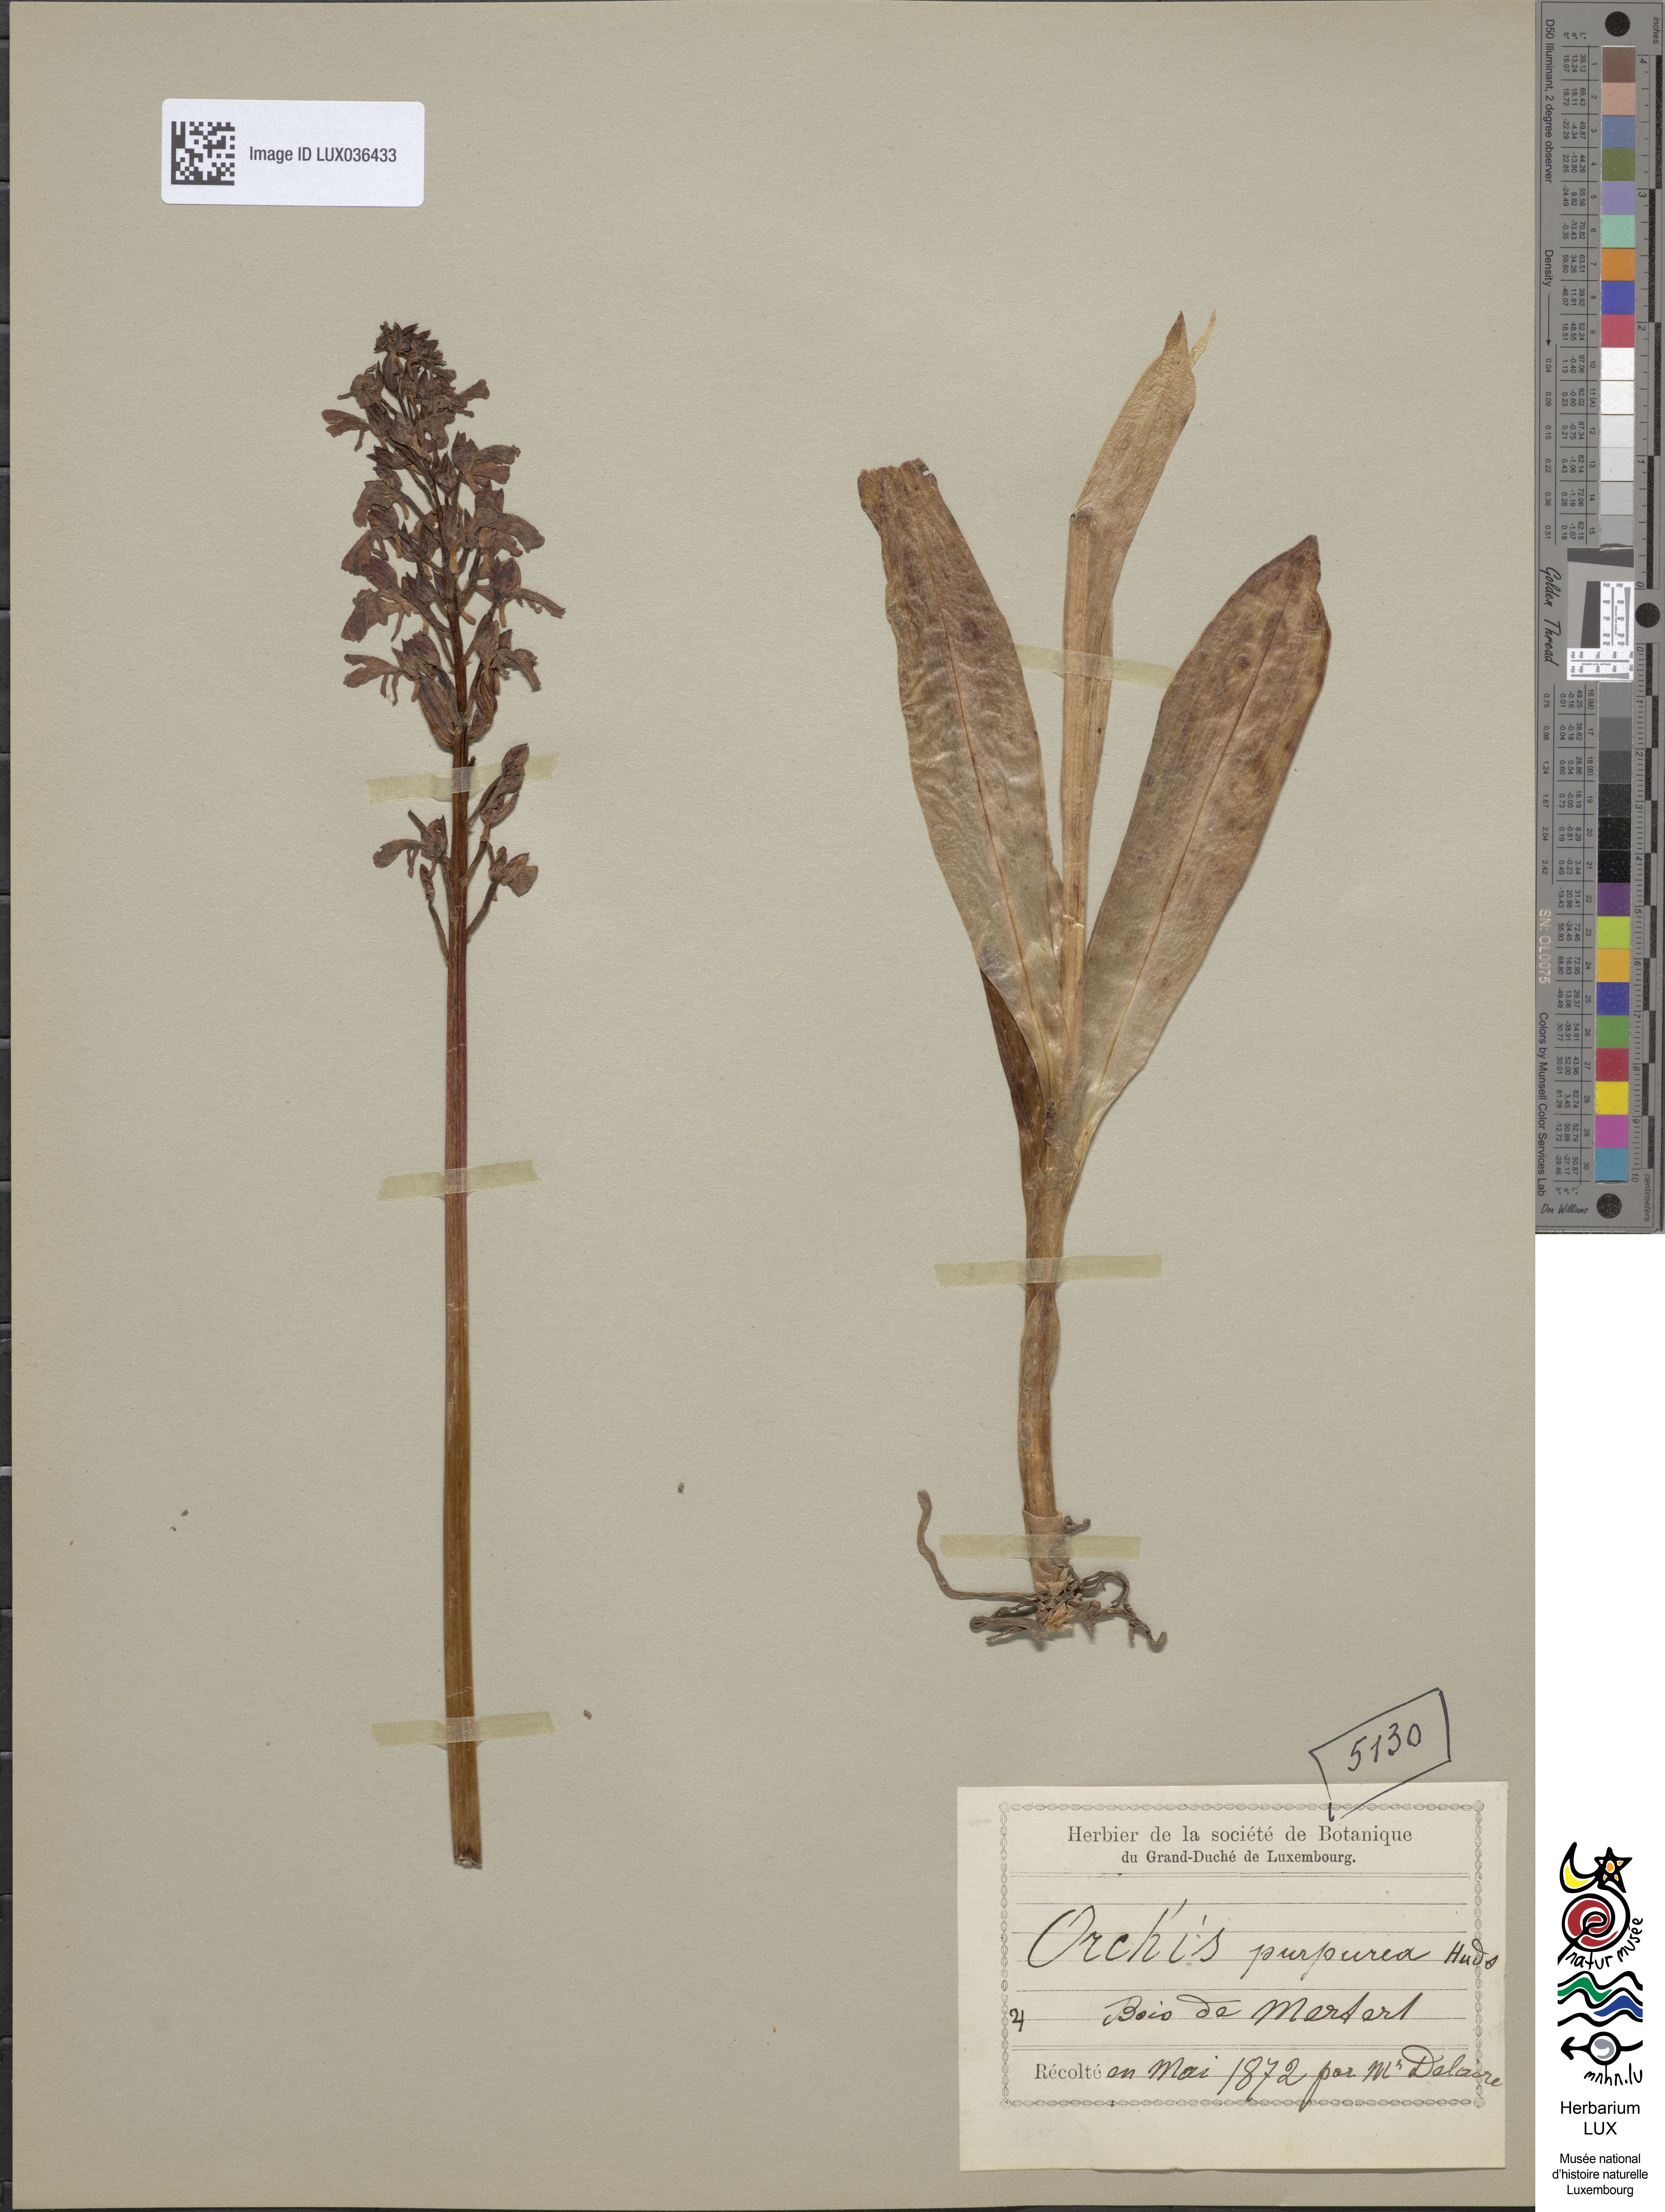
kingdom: Plantae
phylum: Tracheophyta
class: Liliopsida
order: Asparagales
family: Orchidaceae
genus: Orchis
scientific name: Orchis purpurea
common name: Lady orchid
